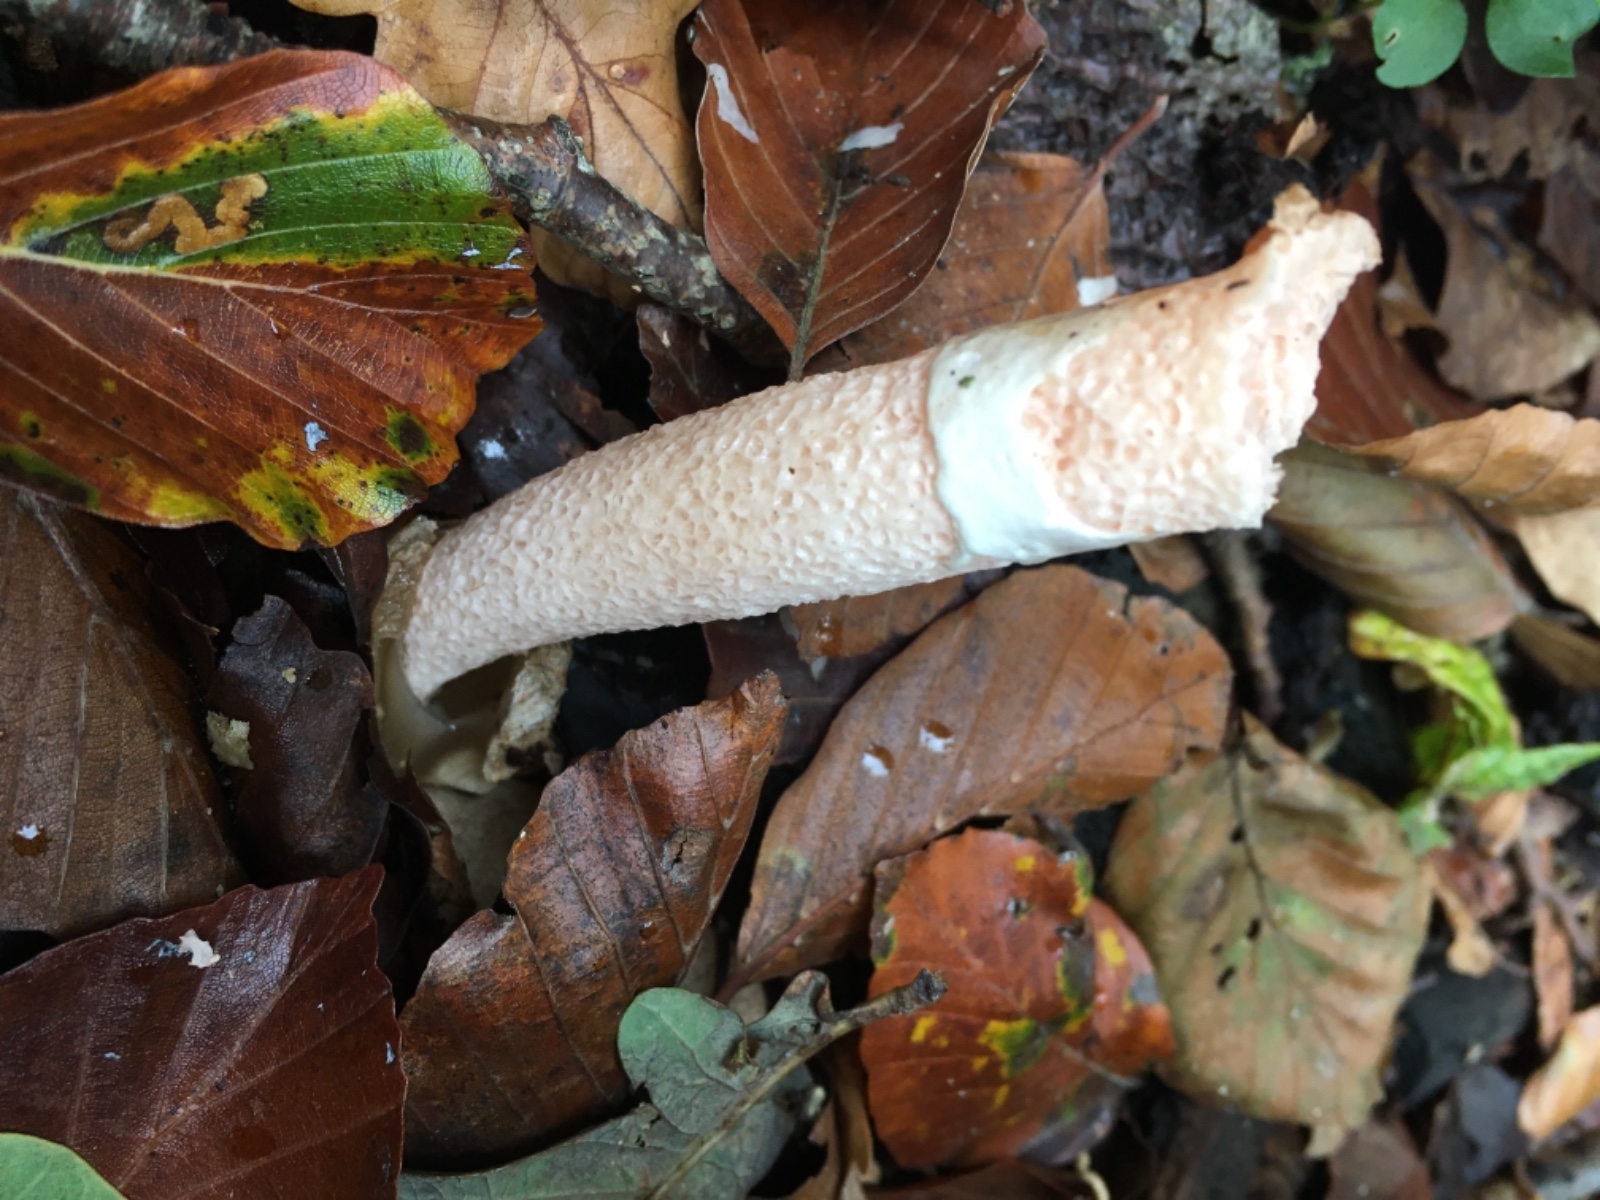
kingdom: Fungi
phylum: Basidiomycota
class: Agaricomycetes
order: Phallales
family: Phallaceae
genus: Mutinus
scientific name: Mutinus caninus
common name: hunde-stinksvamp
